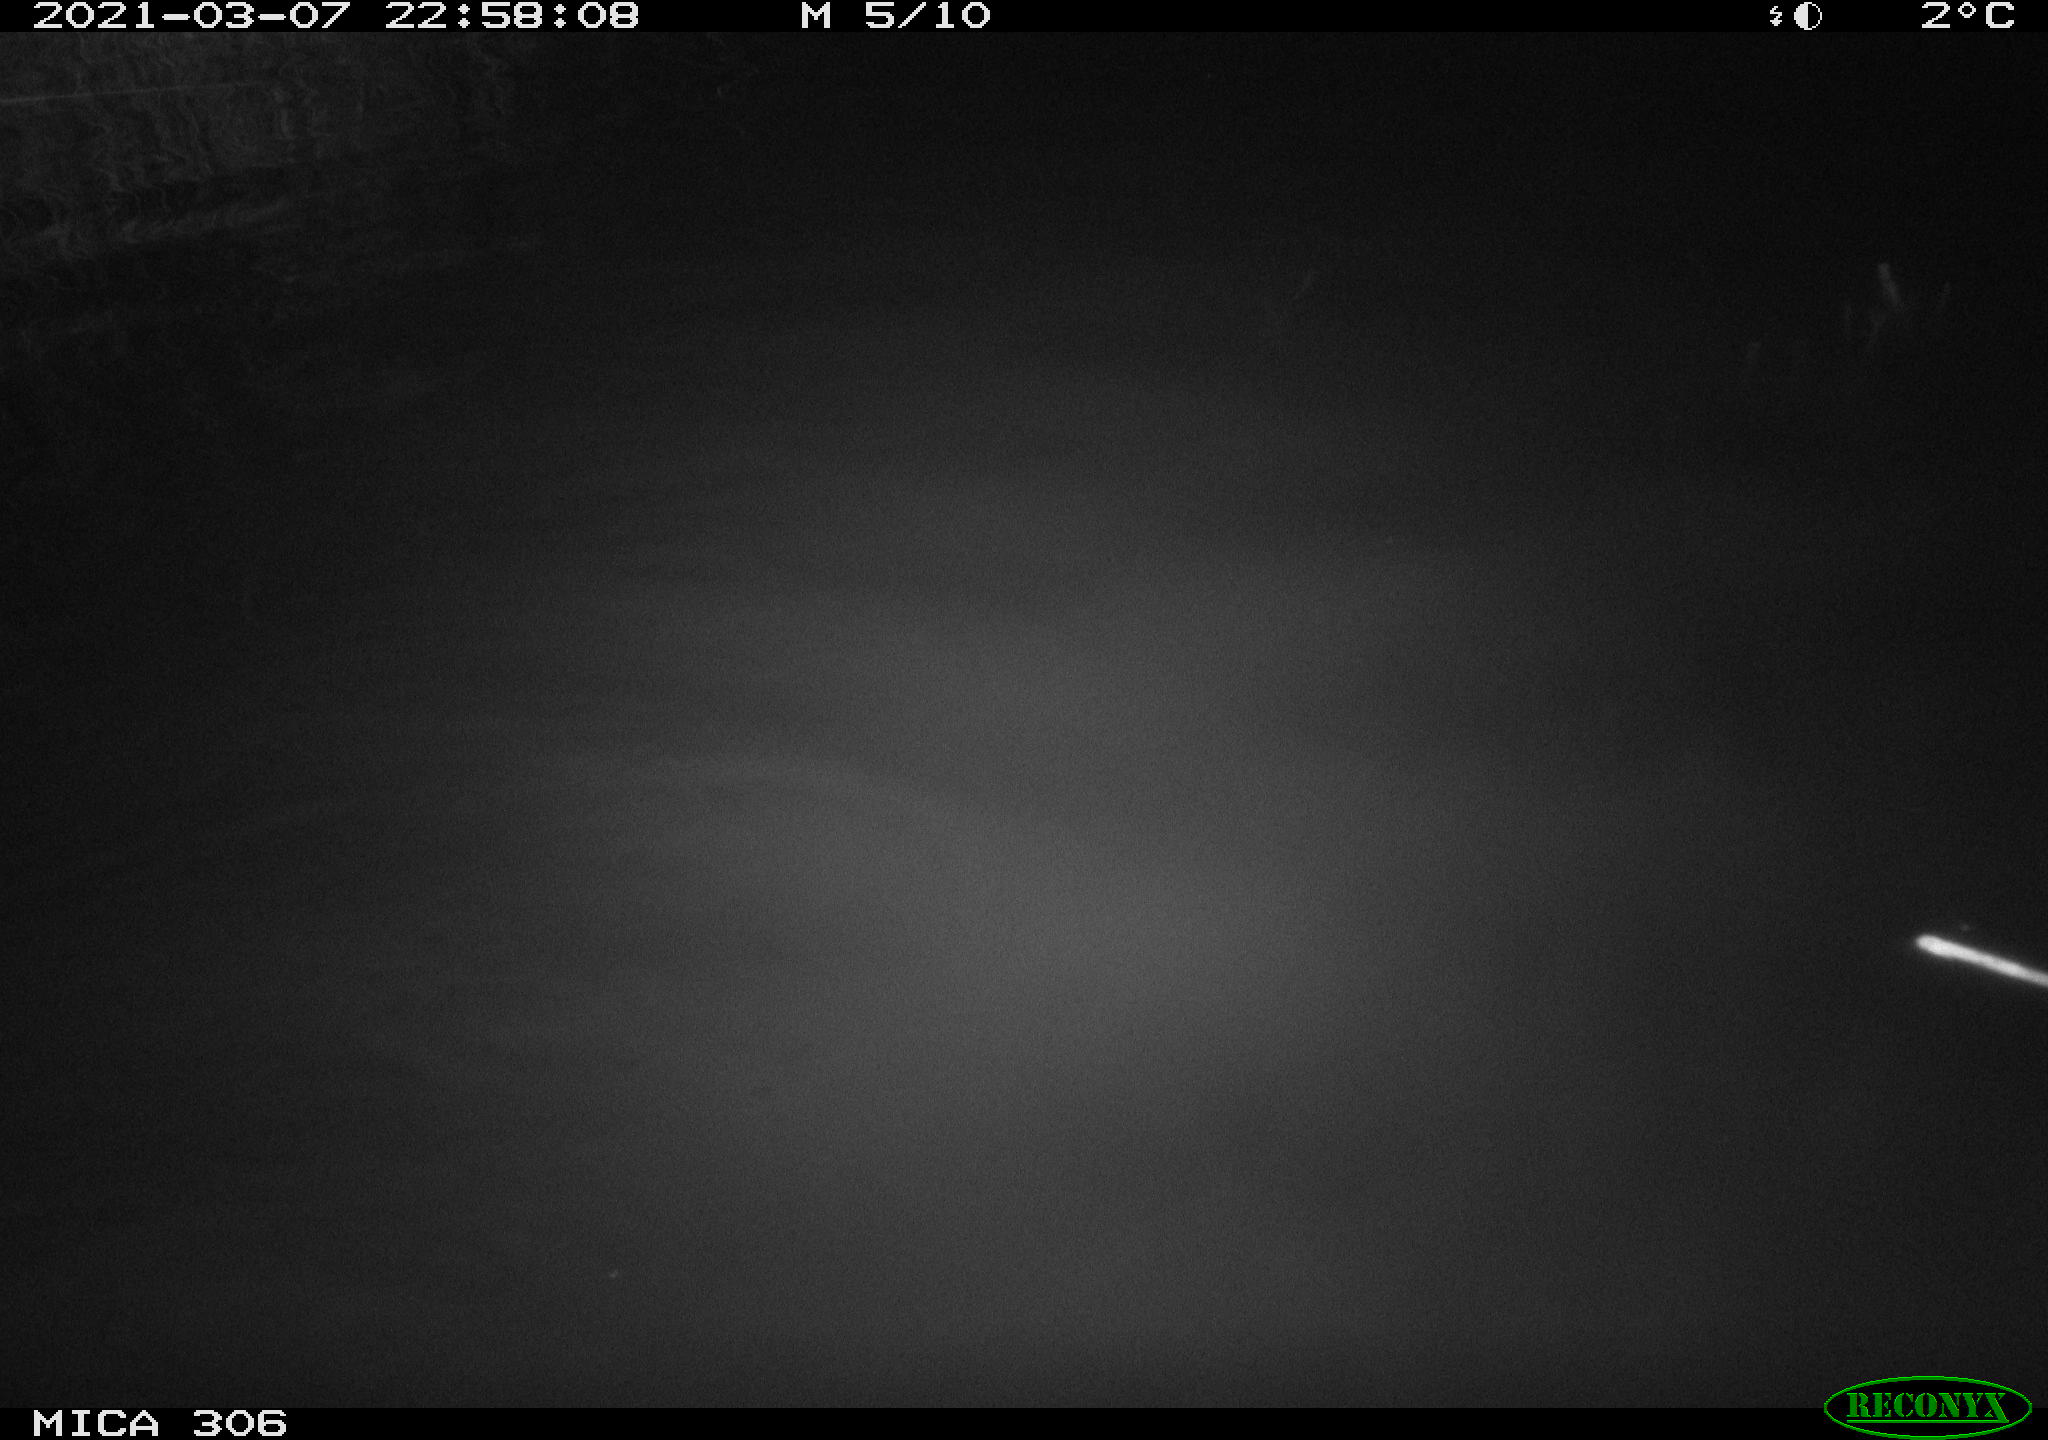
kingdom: Animalia
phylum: Chordata
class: Mammalia
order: Rodentia
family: Cricetidae
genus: Ondatra
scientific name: Ondatra zibethicus
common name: Muskrat
